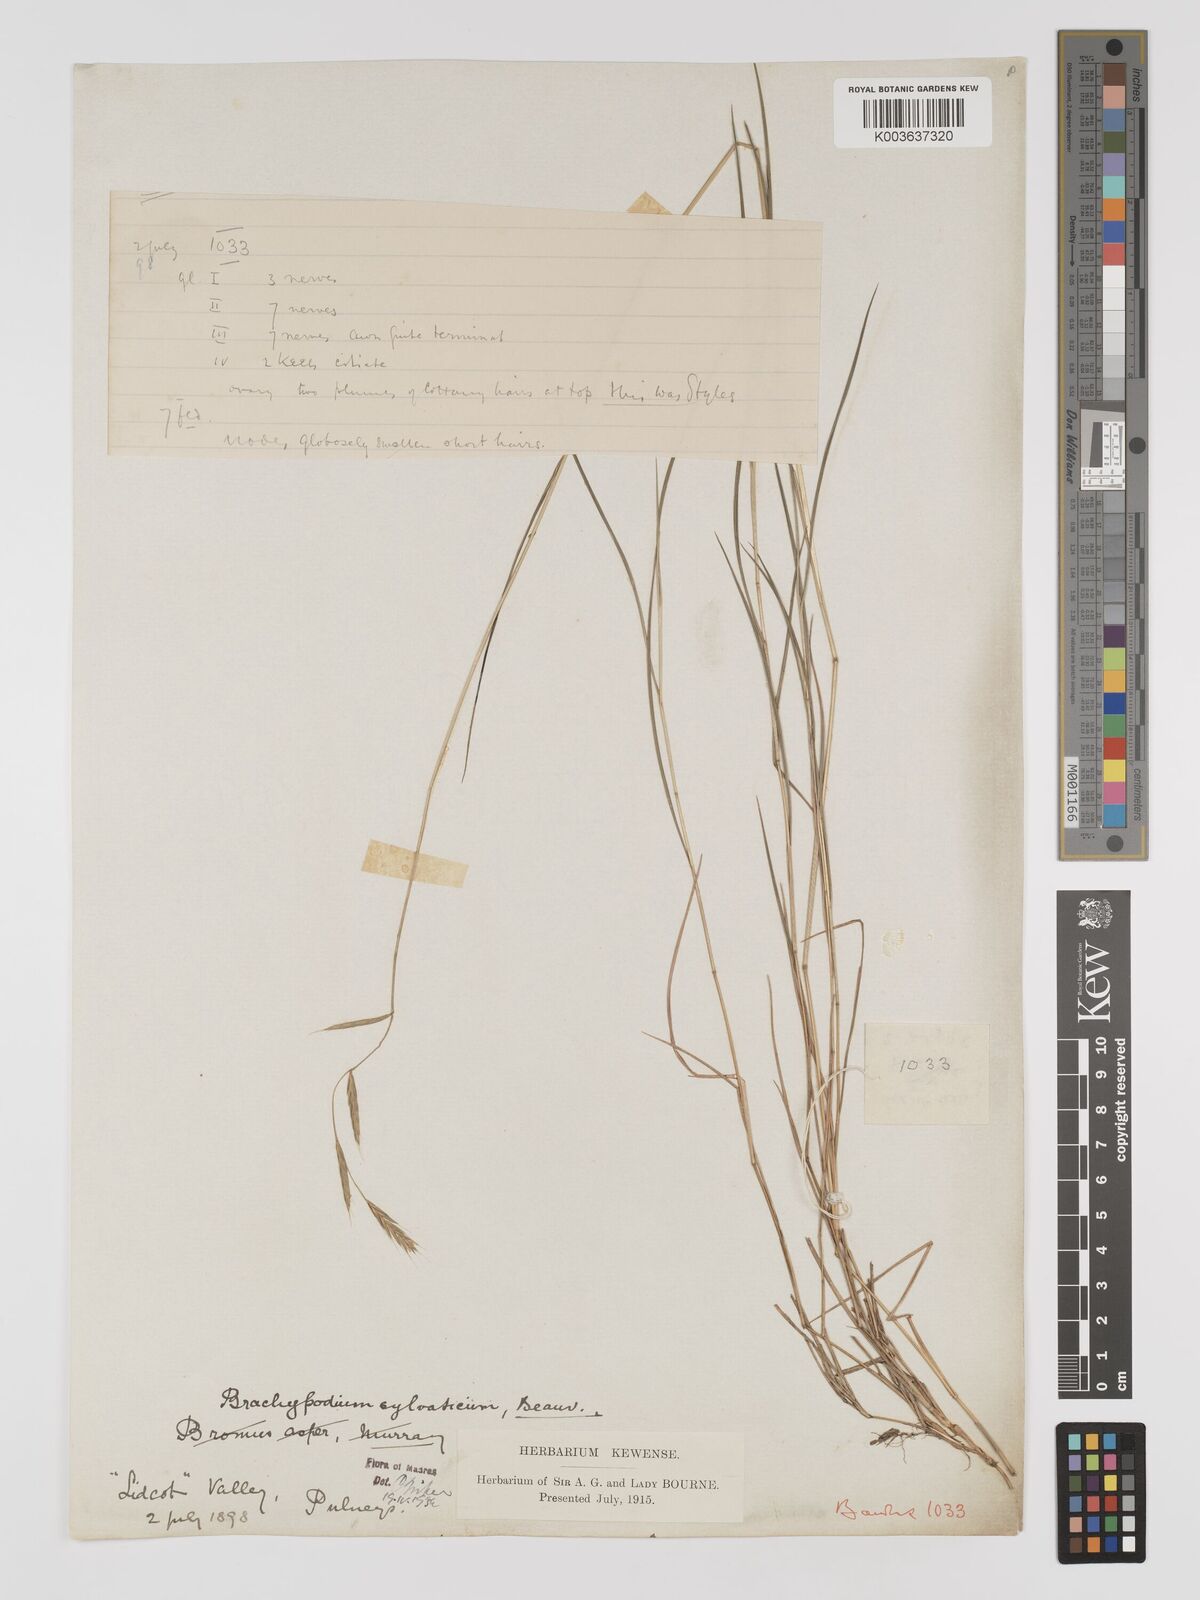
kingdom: Plantae
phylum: Tracheophyta
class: Liliopsida
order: Poales
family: Poaceae
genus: Brachypodium
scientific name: Brachypodium sylvaticum
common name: False-brome
